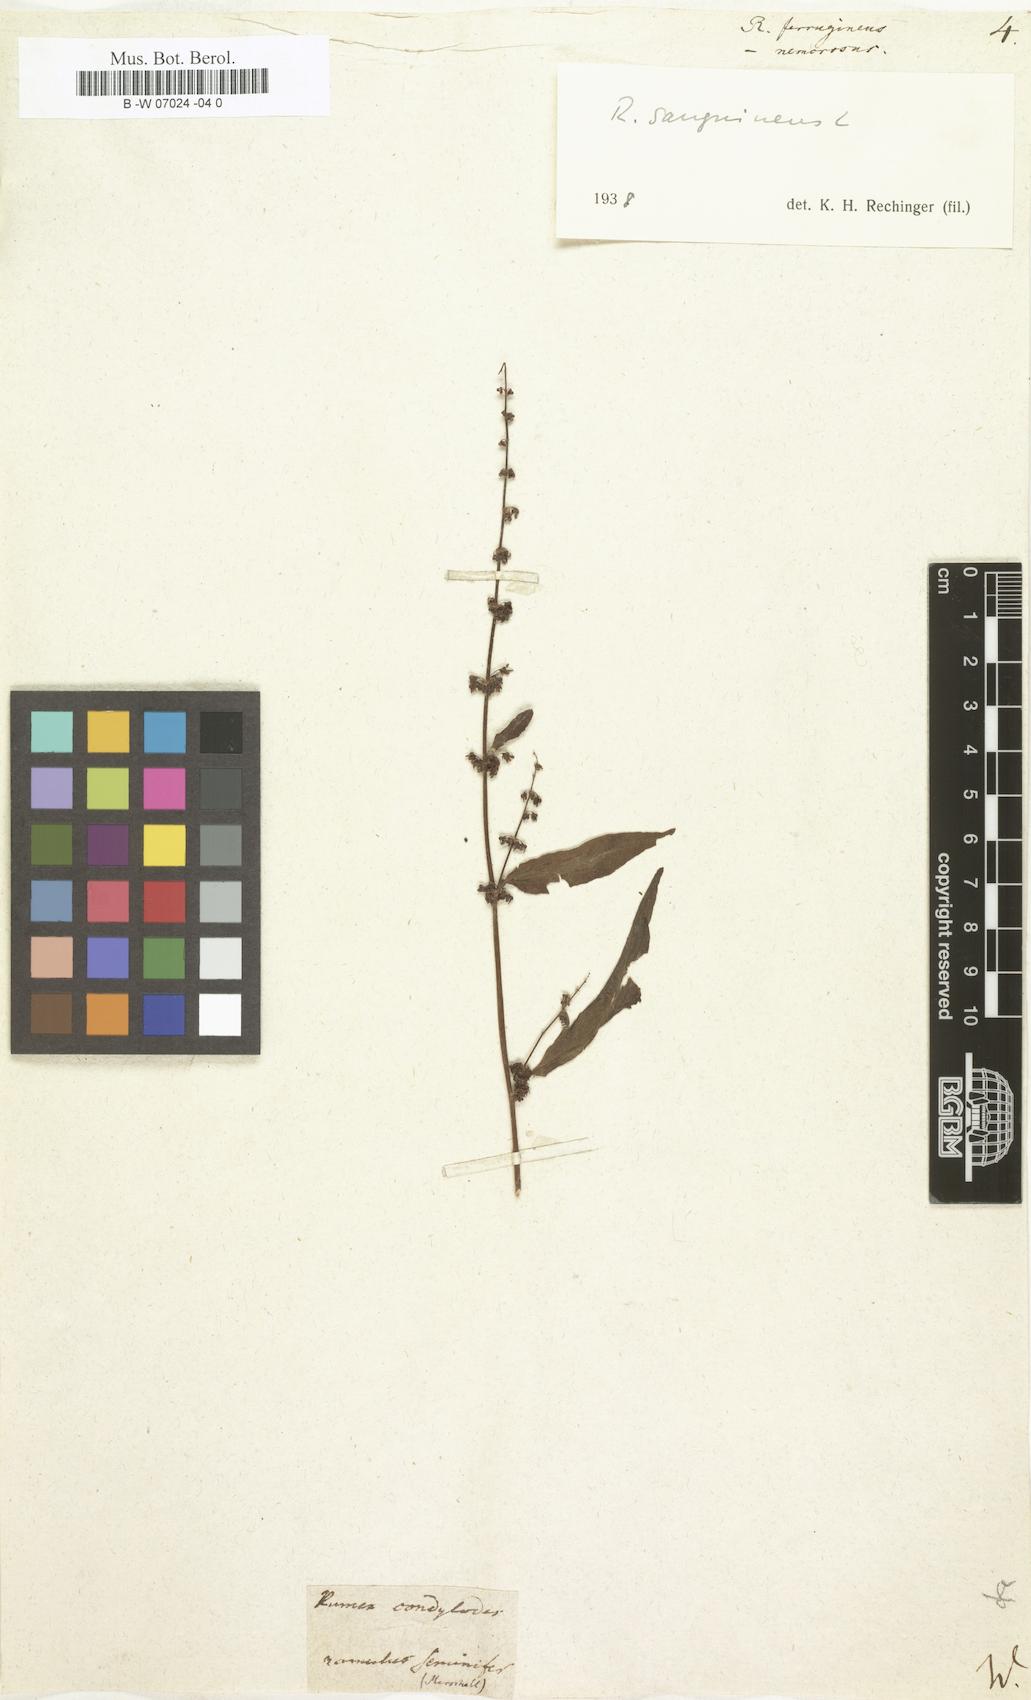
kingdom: Plantae
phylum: Tracheophyta
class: Magnoliopsida
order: Caryophyllales
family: Polygonaceae
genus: Rumex
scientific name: Rumex conglomeratus
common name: Clustered dock
